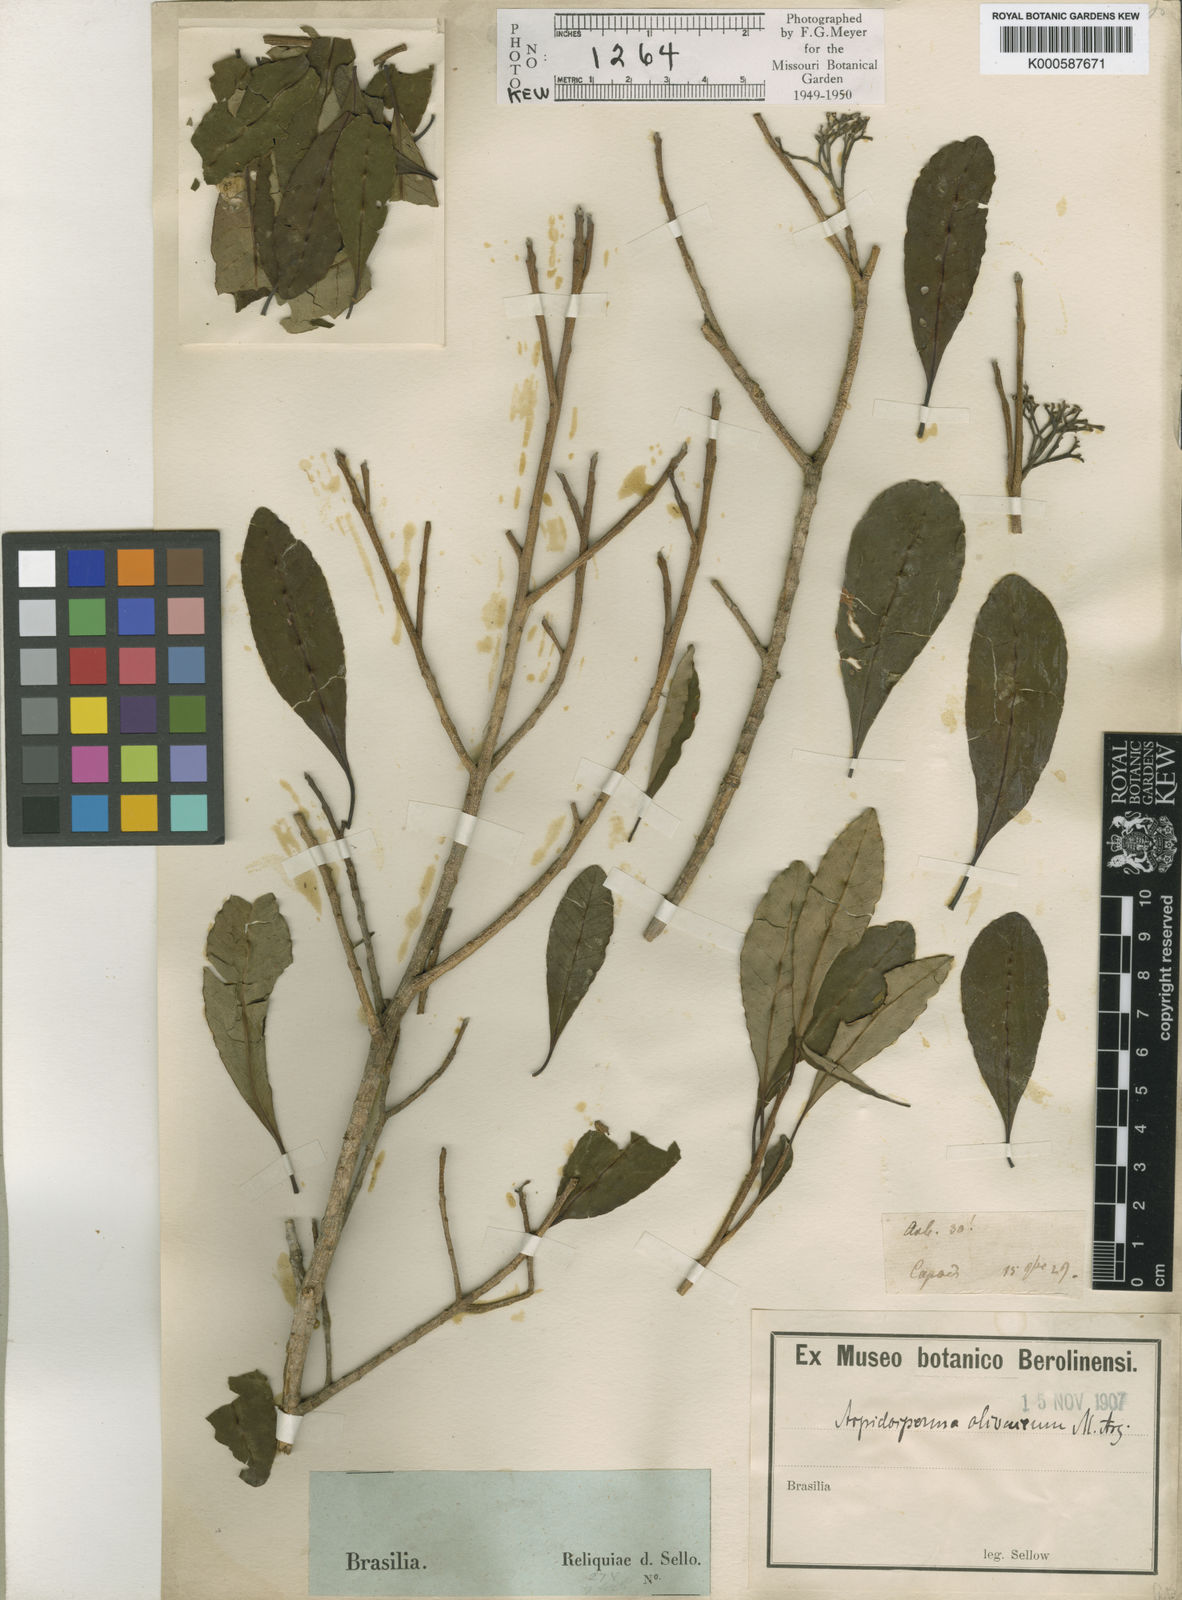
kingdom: Plantae
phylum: Tracheophyta
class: Magnoliopsida
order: Gentianales
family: Apocynaceae
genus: Aspidosperma
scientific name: Aspidosperma
